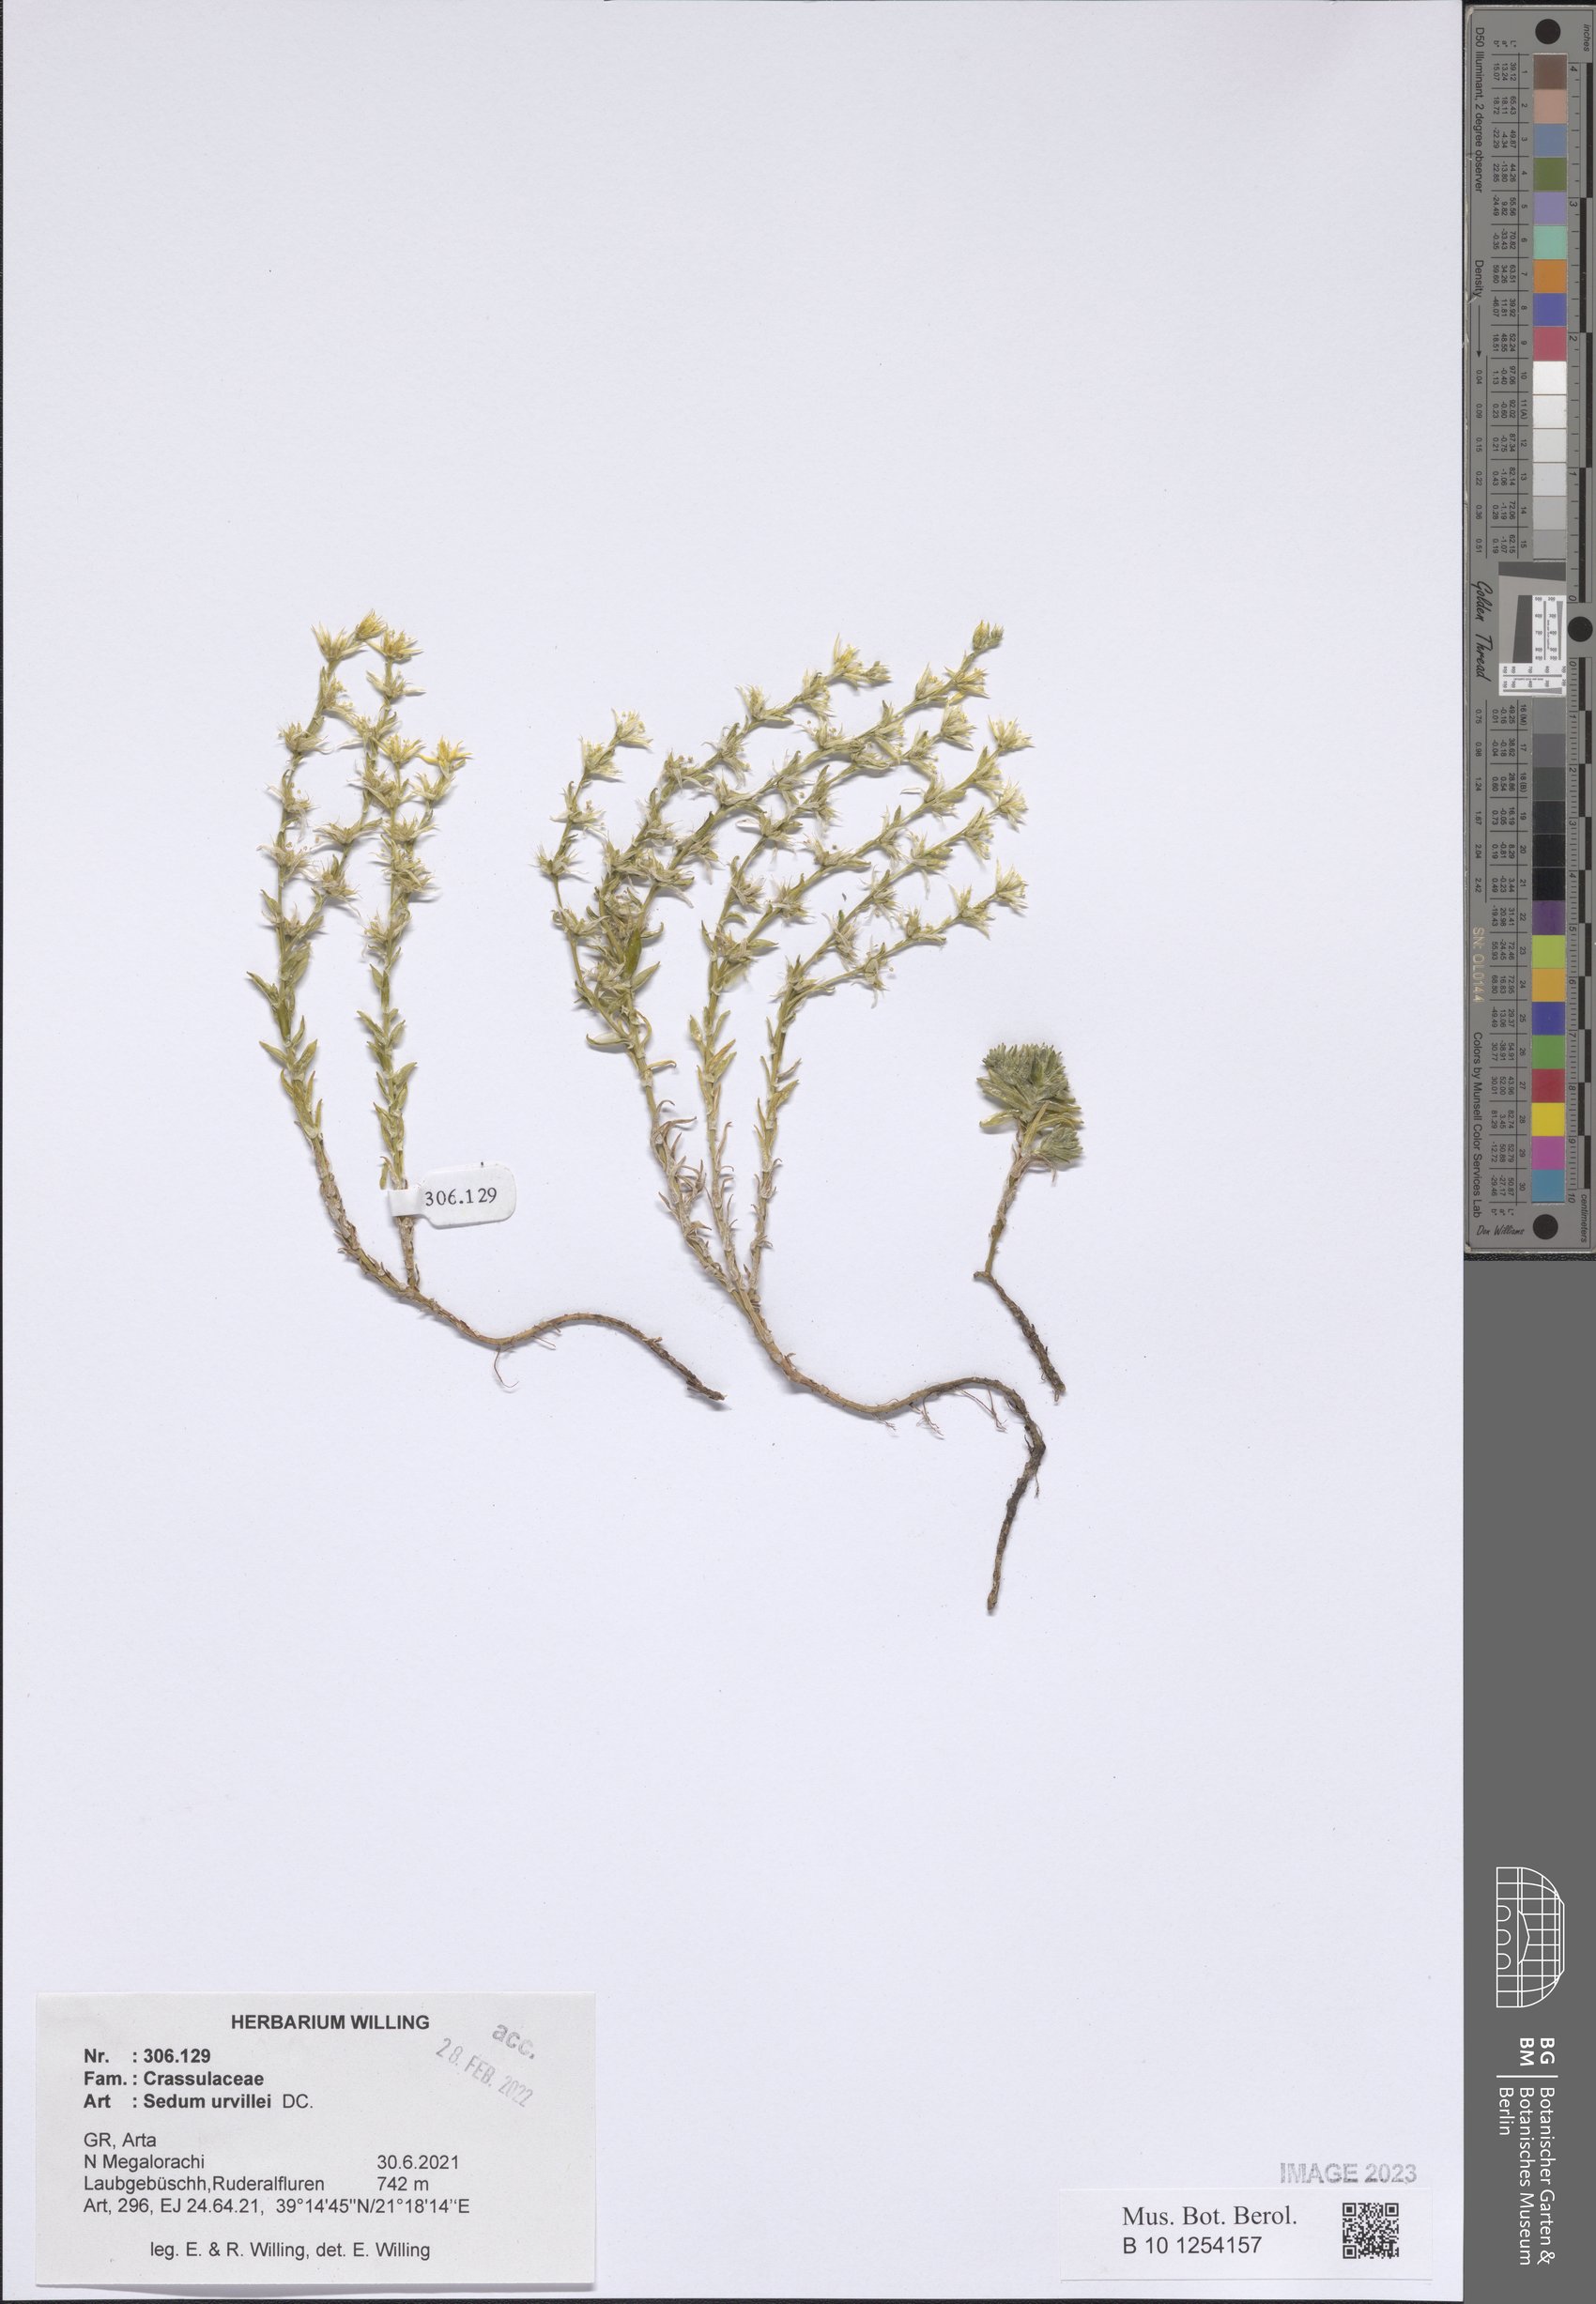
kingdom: Plantae
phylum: Tracheophyta
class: Magnoliopsida
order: Saxifragales
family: Crassulaceae
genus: Sedum
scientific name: Sedum urvillei
